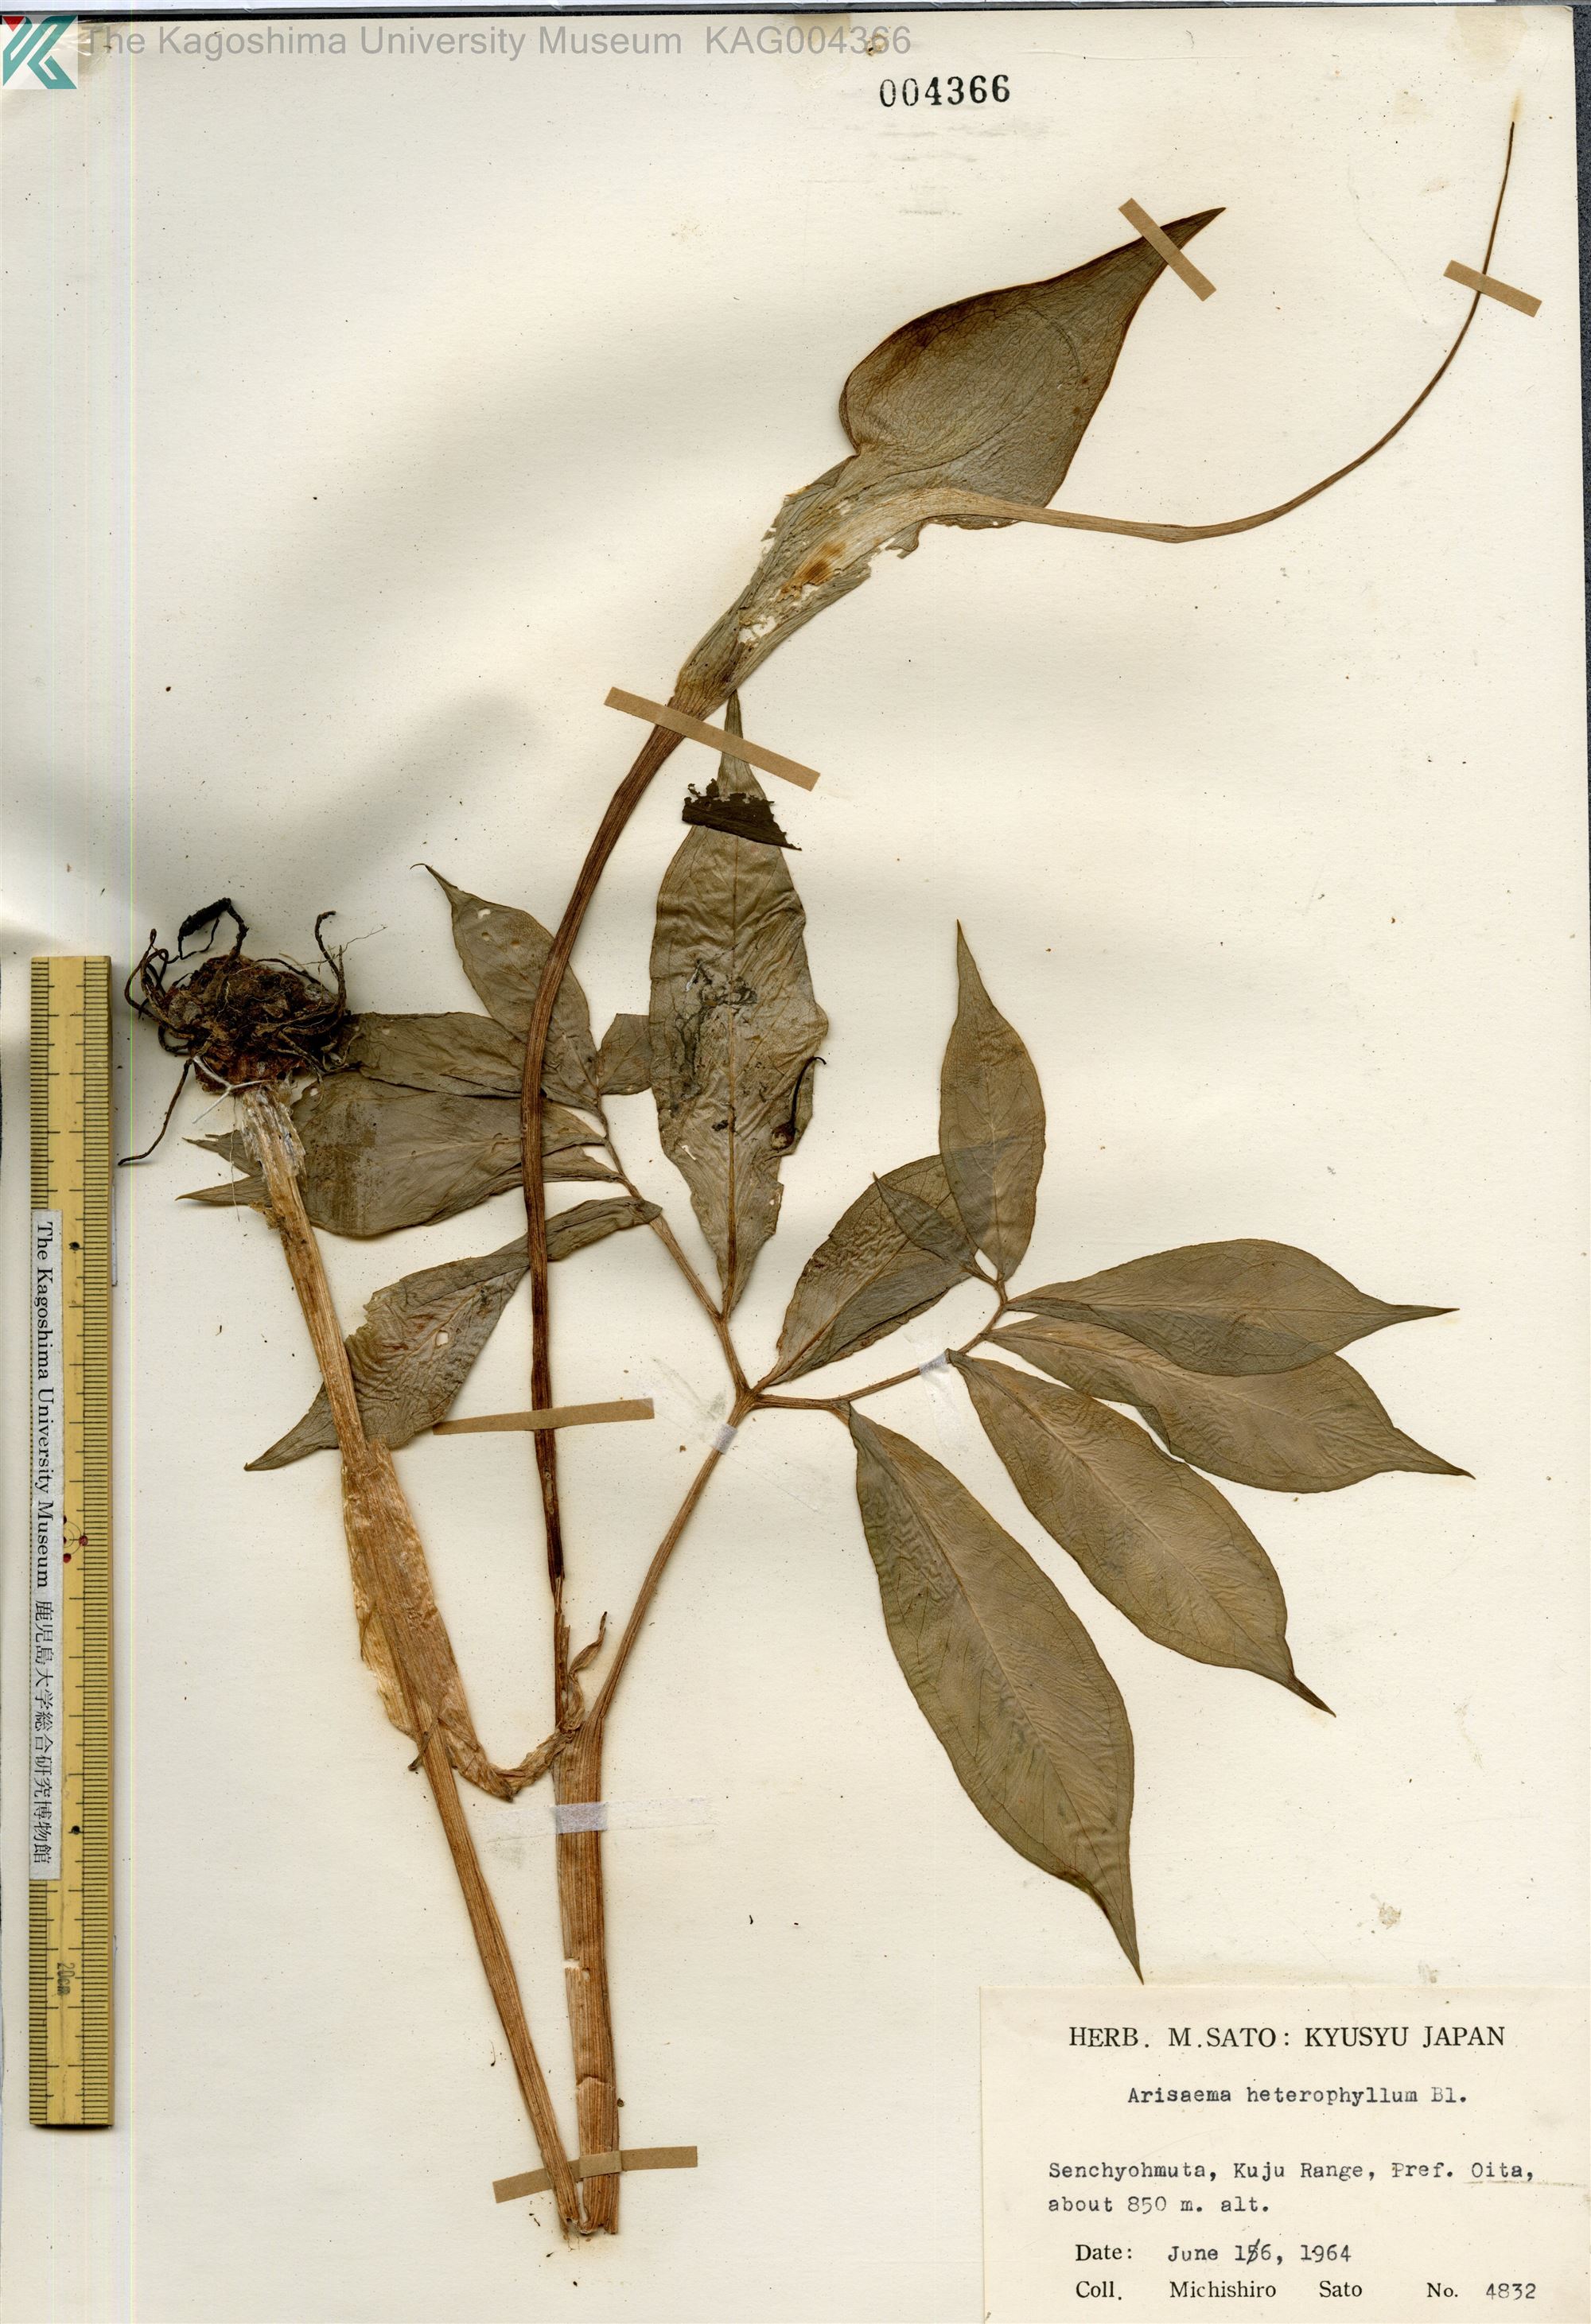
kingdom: Plantae
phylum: Tracheophyta
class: Liliopsida
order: Alismatales
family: Araceae
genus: Arisaema
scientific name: Arisaema heterophyllum
